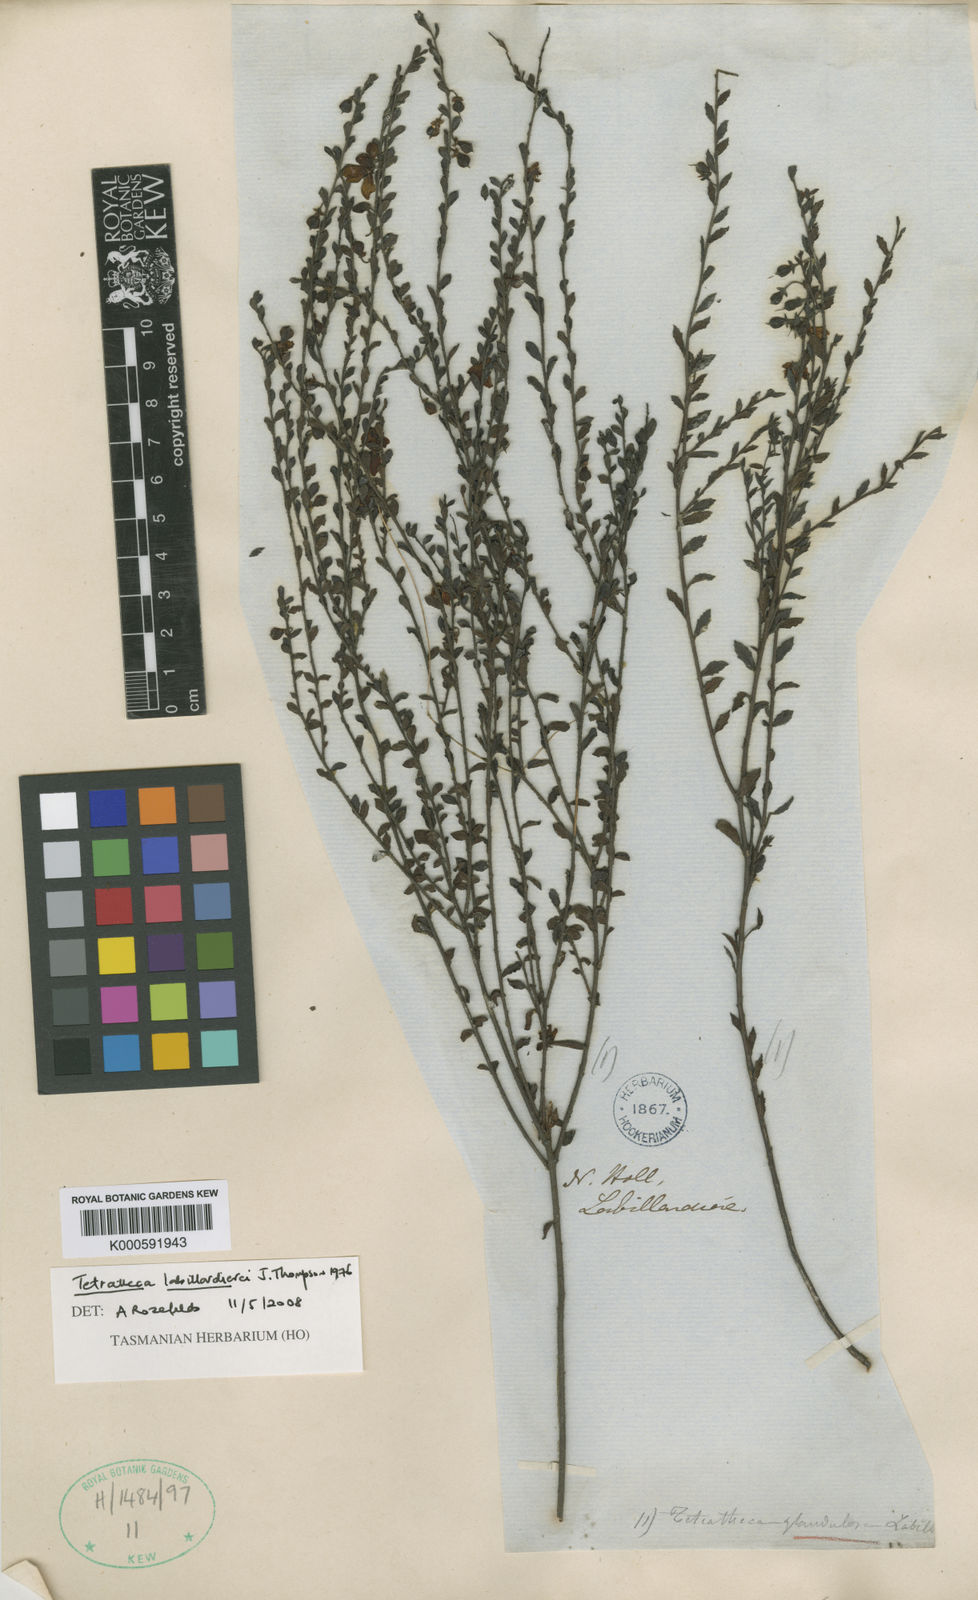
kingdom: Plantae
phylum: Tracheophyta
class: Magnoliopsida
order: Oxalidales
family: Elaeocarpaceae
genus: Tetratheca
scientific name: Tetratheca labillardierei
